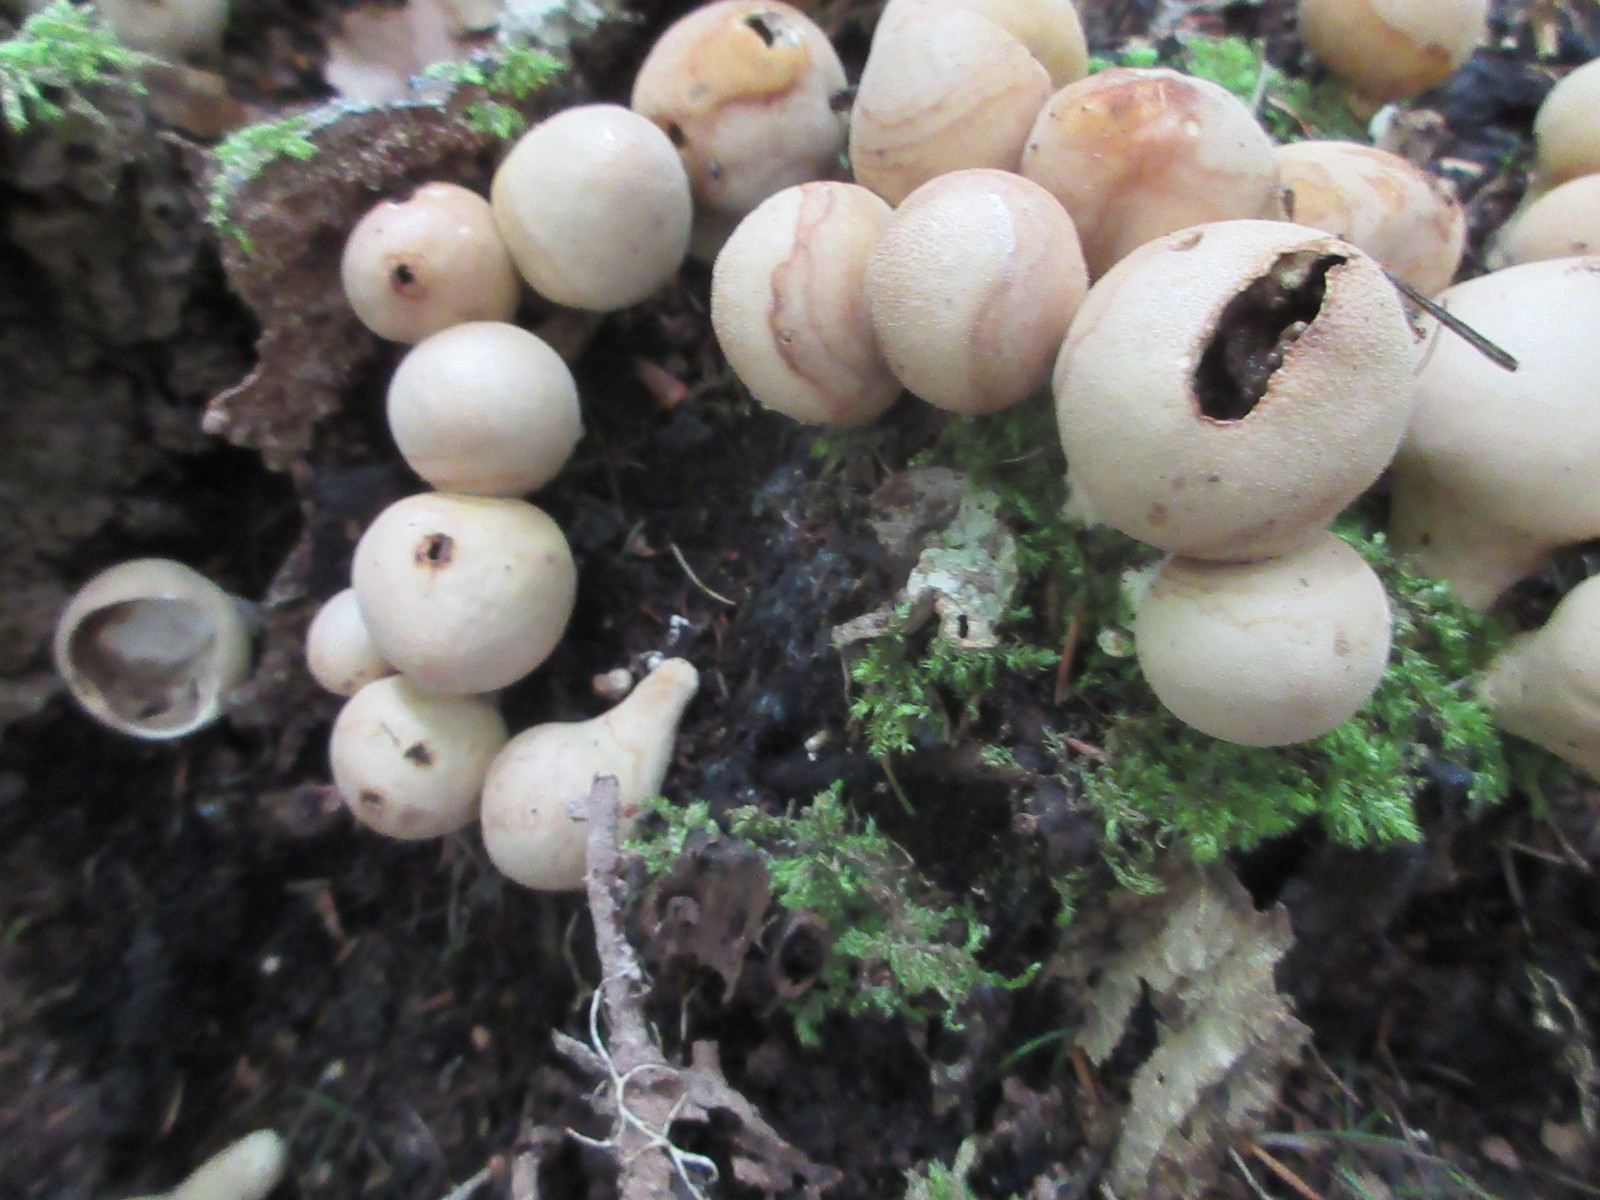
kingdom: Fungi
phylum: Basidiomycota
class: Agaricomycetes
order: Agaricales
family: Lycoperdaceae
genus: Apioperdon
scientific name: Apioperdon pyriforme
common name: pære-støvbold
